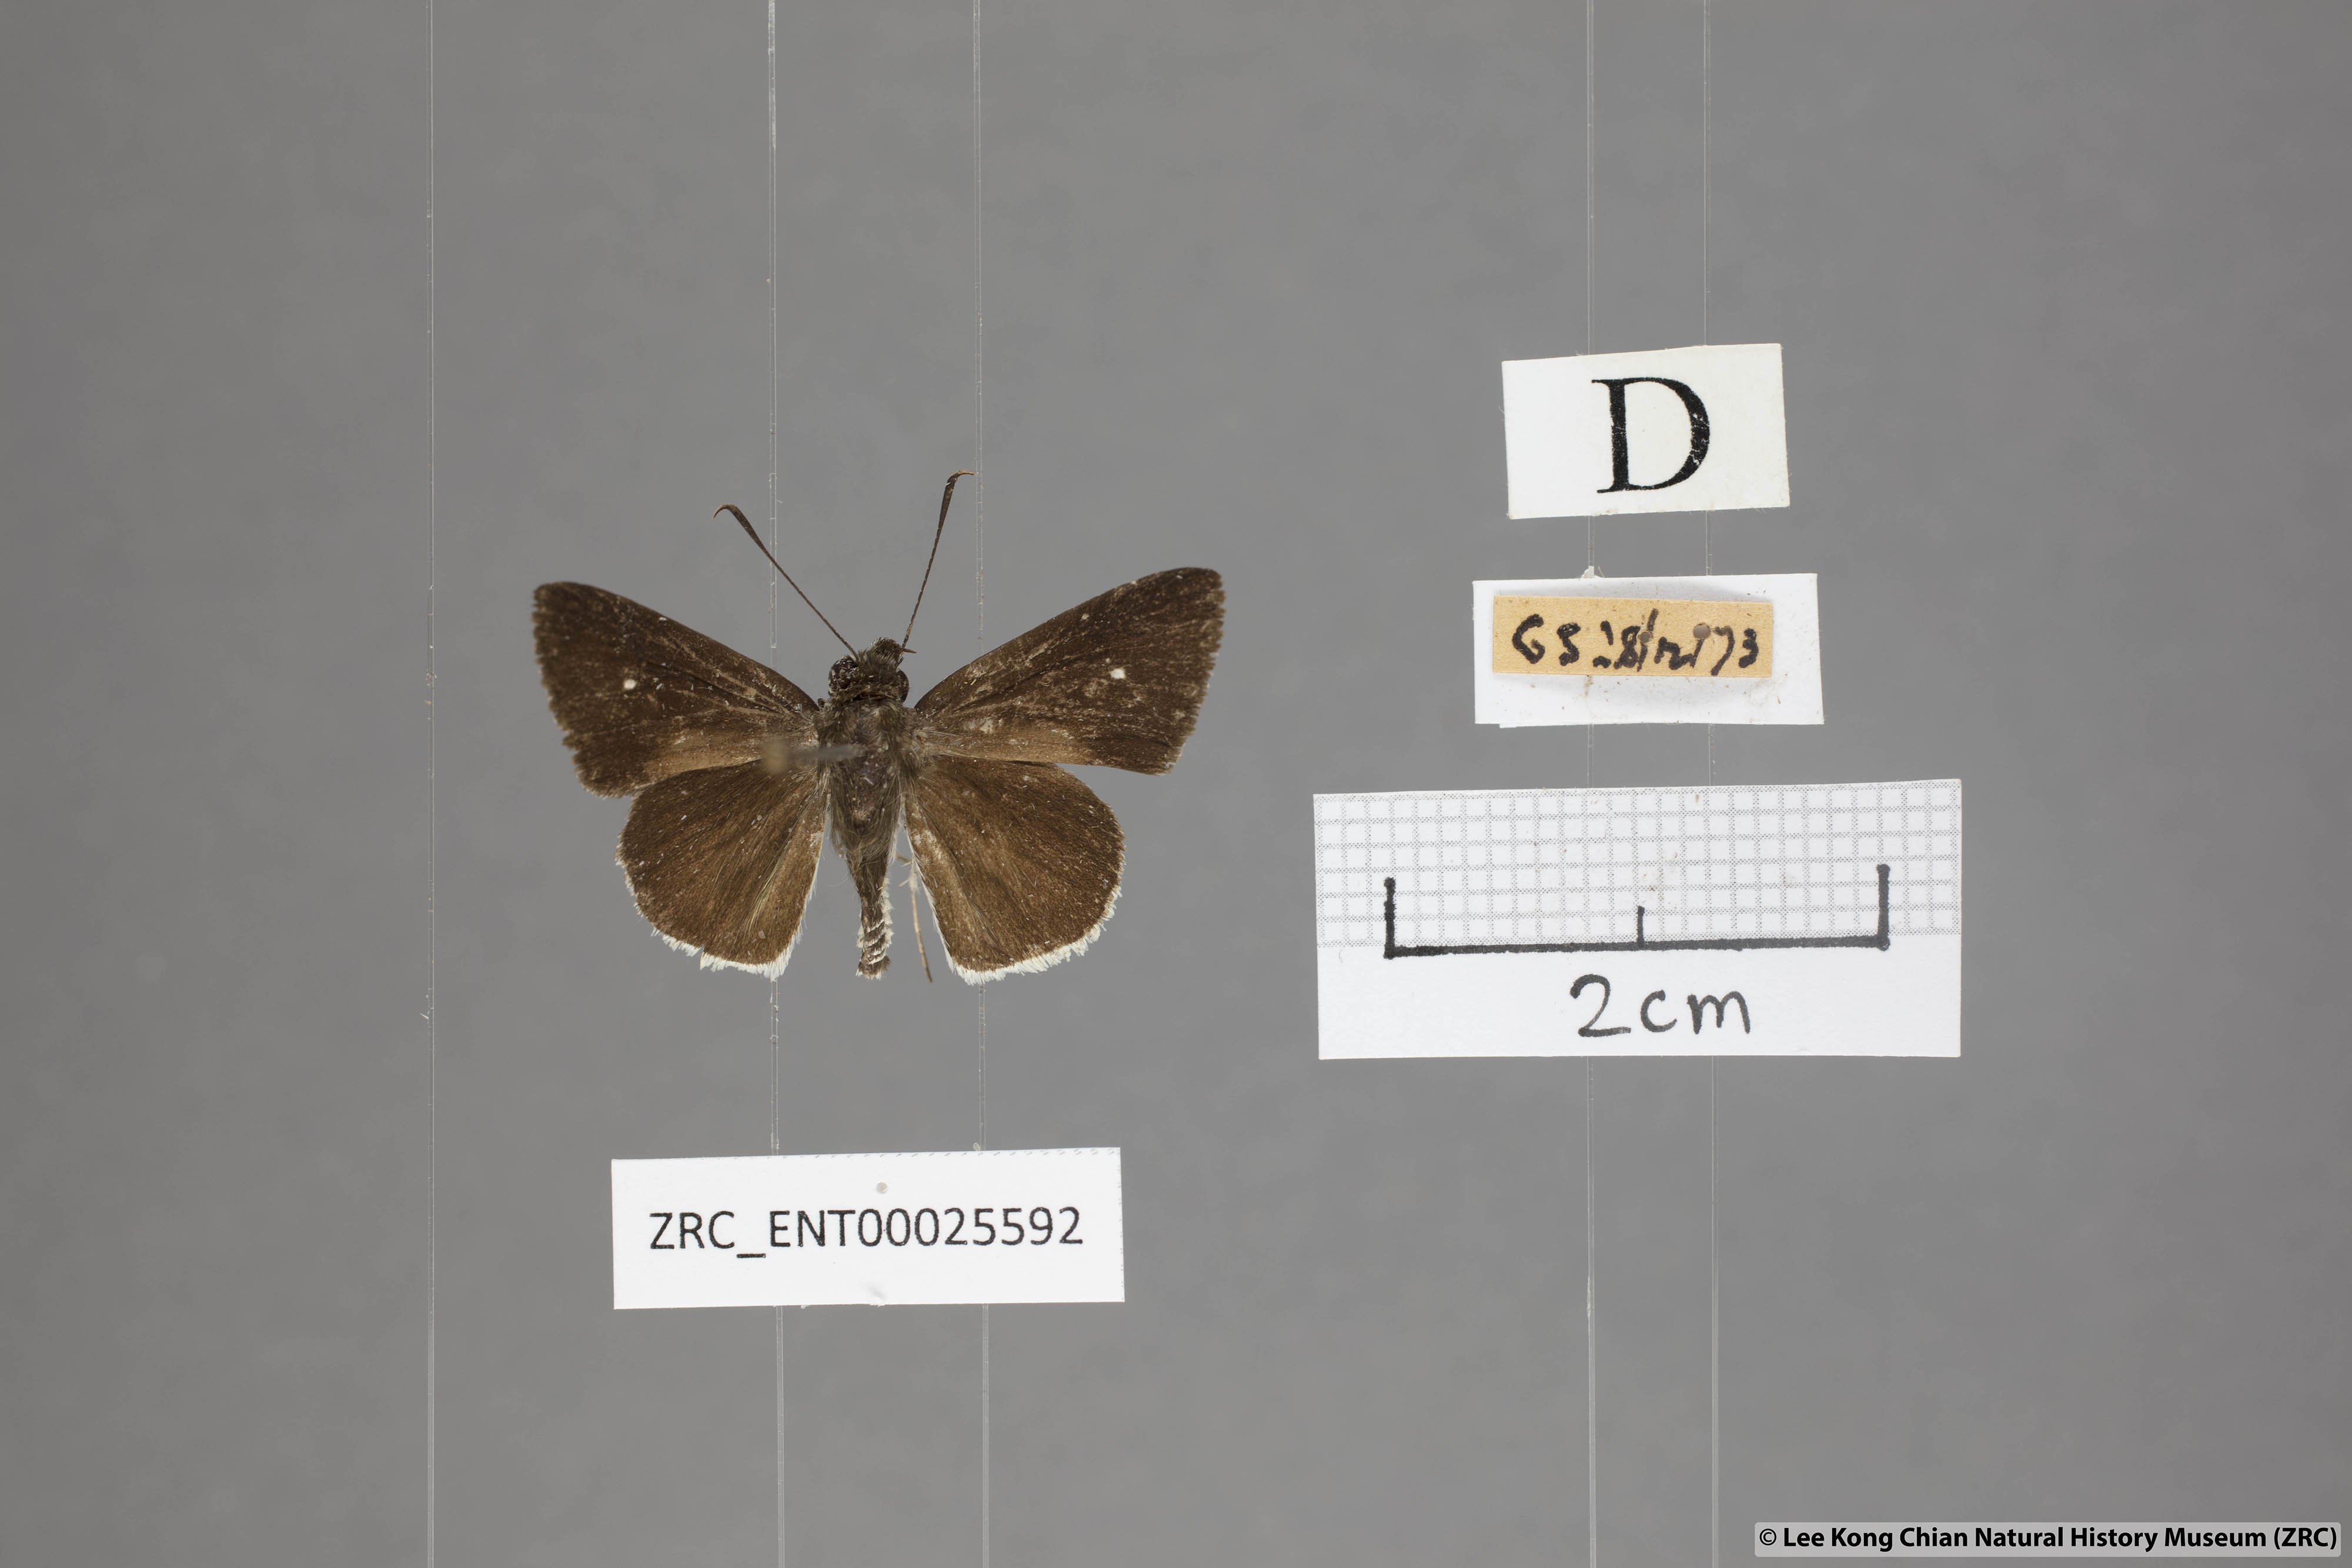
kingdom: Animalia
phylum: Arthropoda
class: Insecta
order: Lepidoptera
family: Hesperiidae
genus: Suastus
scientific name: Suastus minuta
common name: Small palm bob
